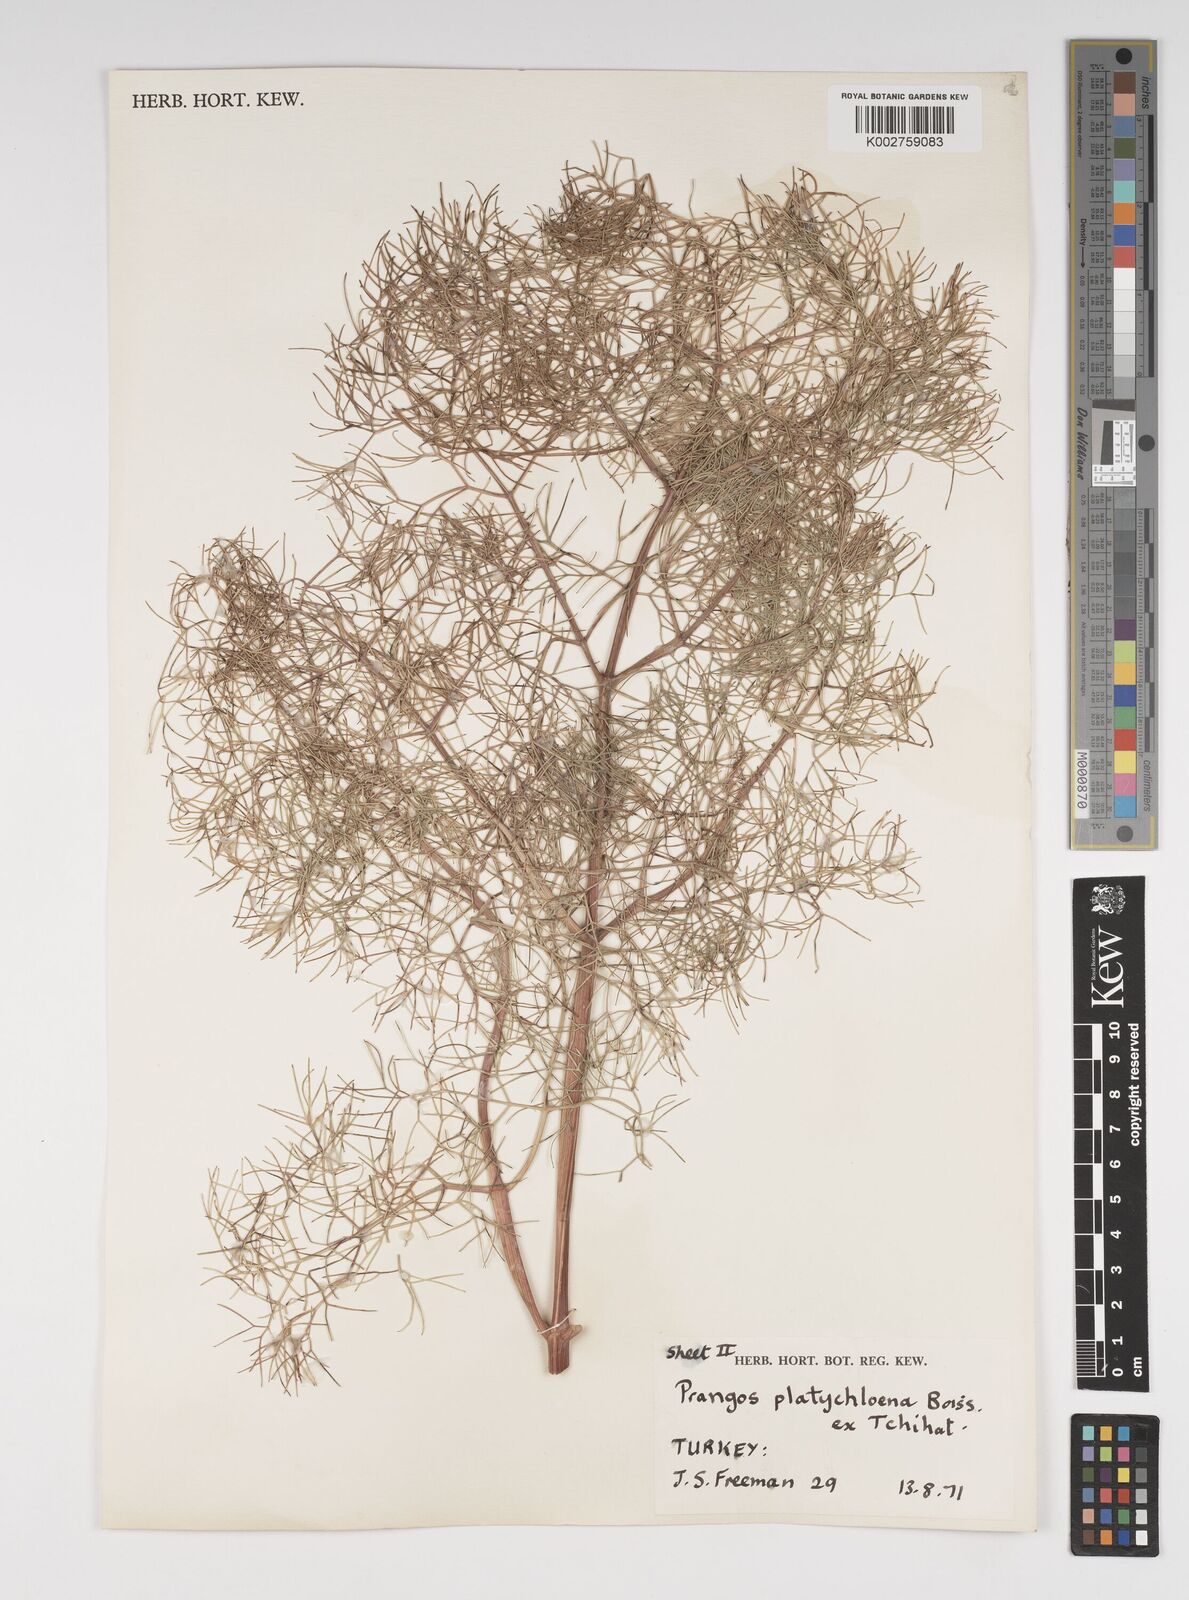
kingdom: Plantae
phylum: Tracheophyta
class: Magnoliopsida
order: Apiales
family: Apiaceae
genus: Prangos
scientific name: Prangos platychlaena
